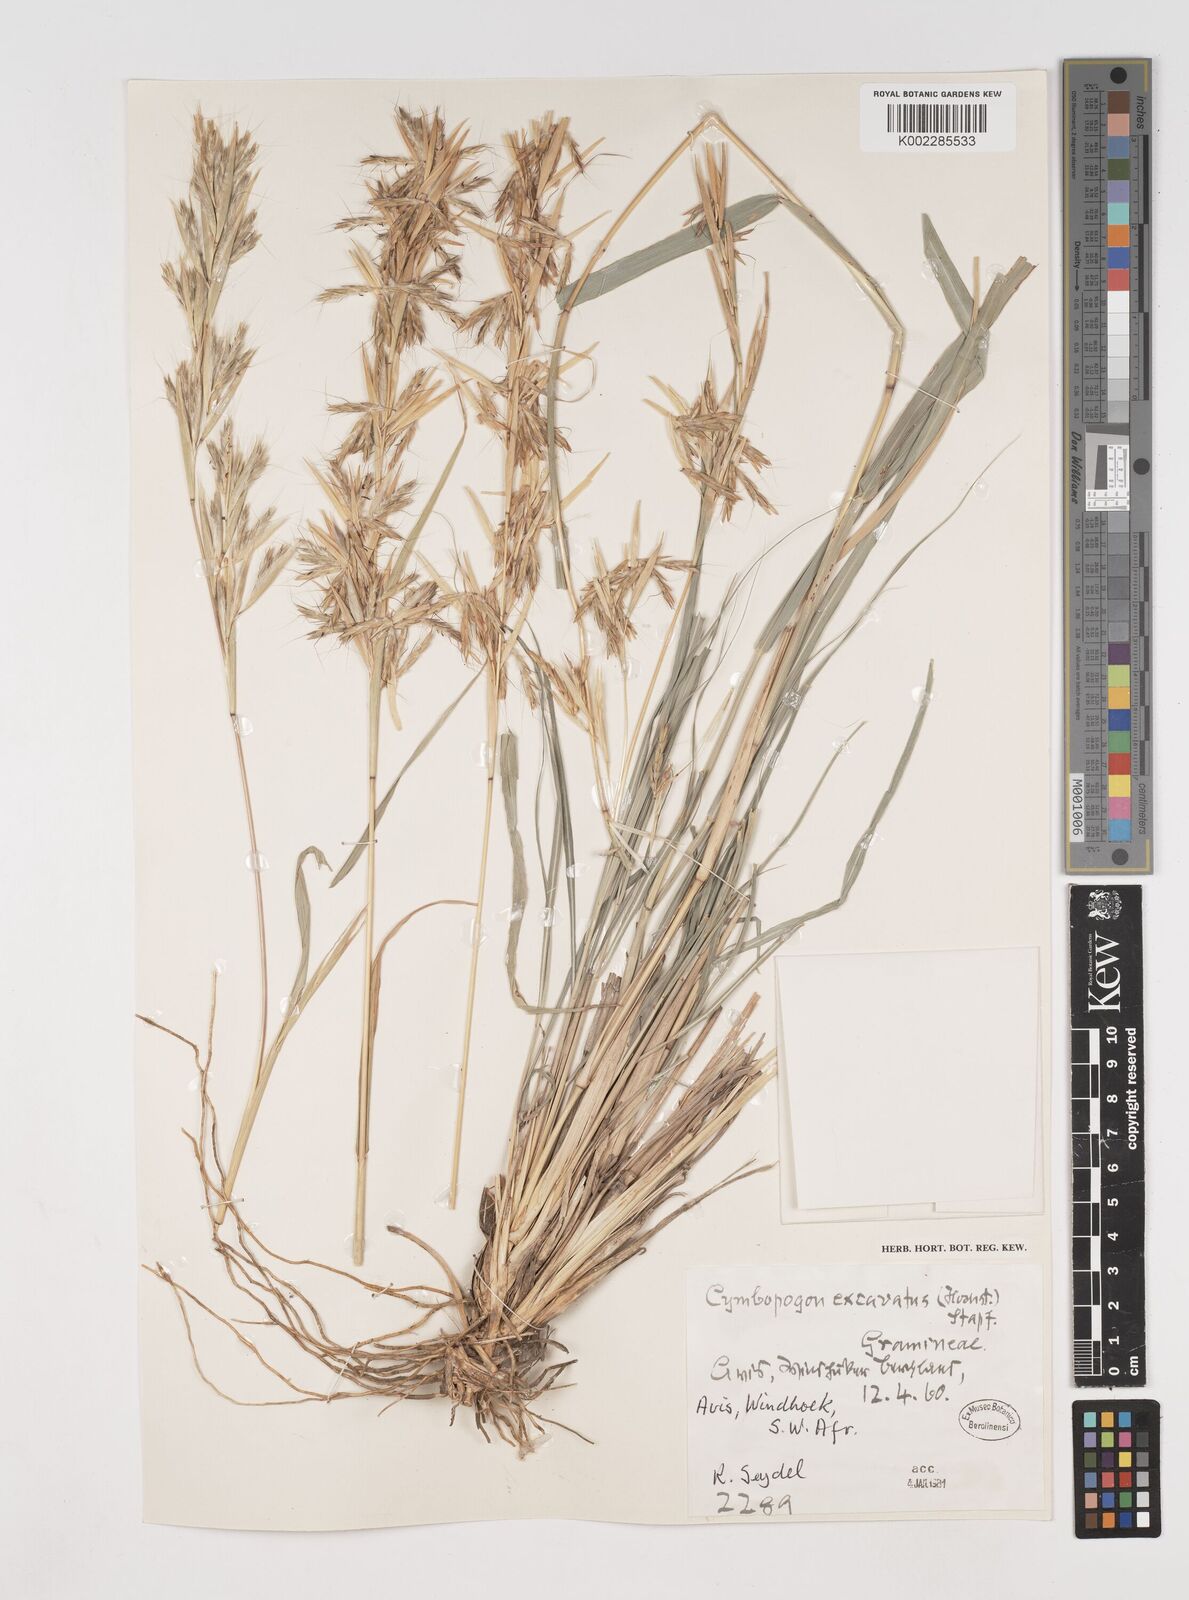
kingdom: Plantae
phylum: Tracheophyta
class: Liliopsida
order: Poales
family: Poaceae
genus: Cymbopogon
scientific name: Cymbopogon caesius
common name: Kachi grass
